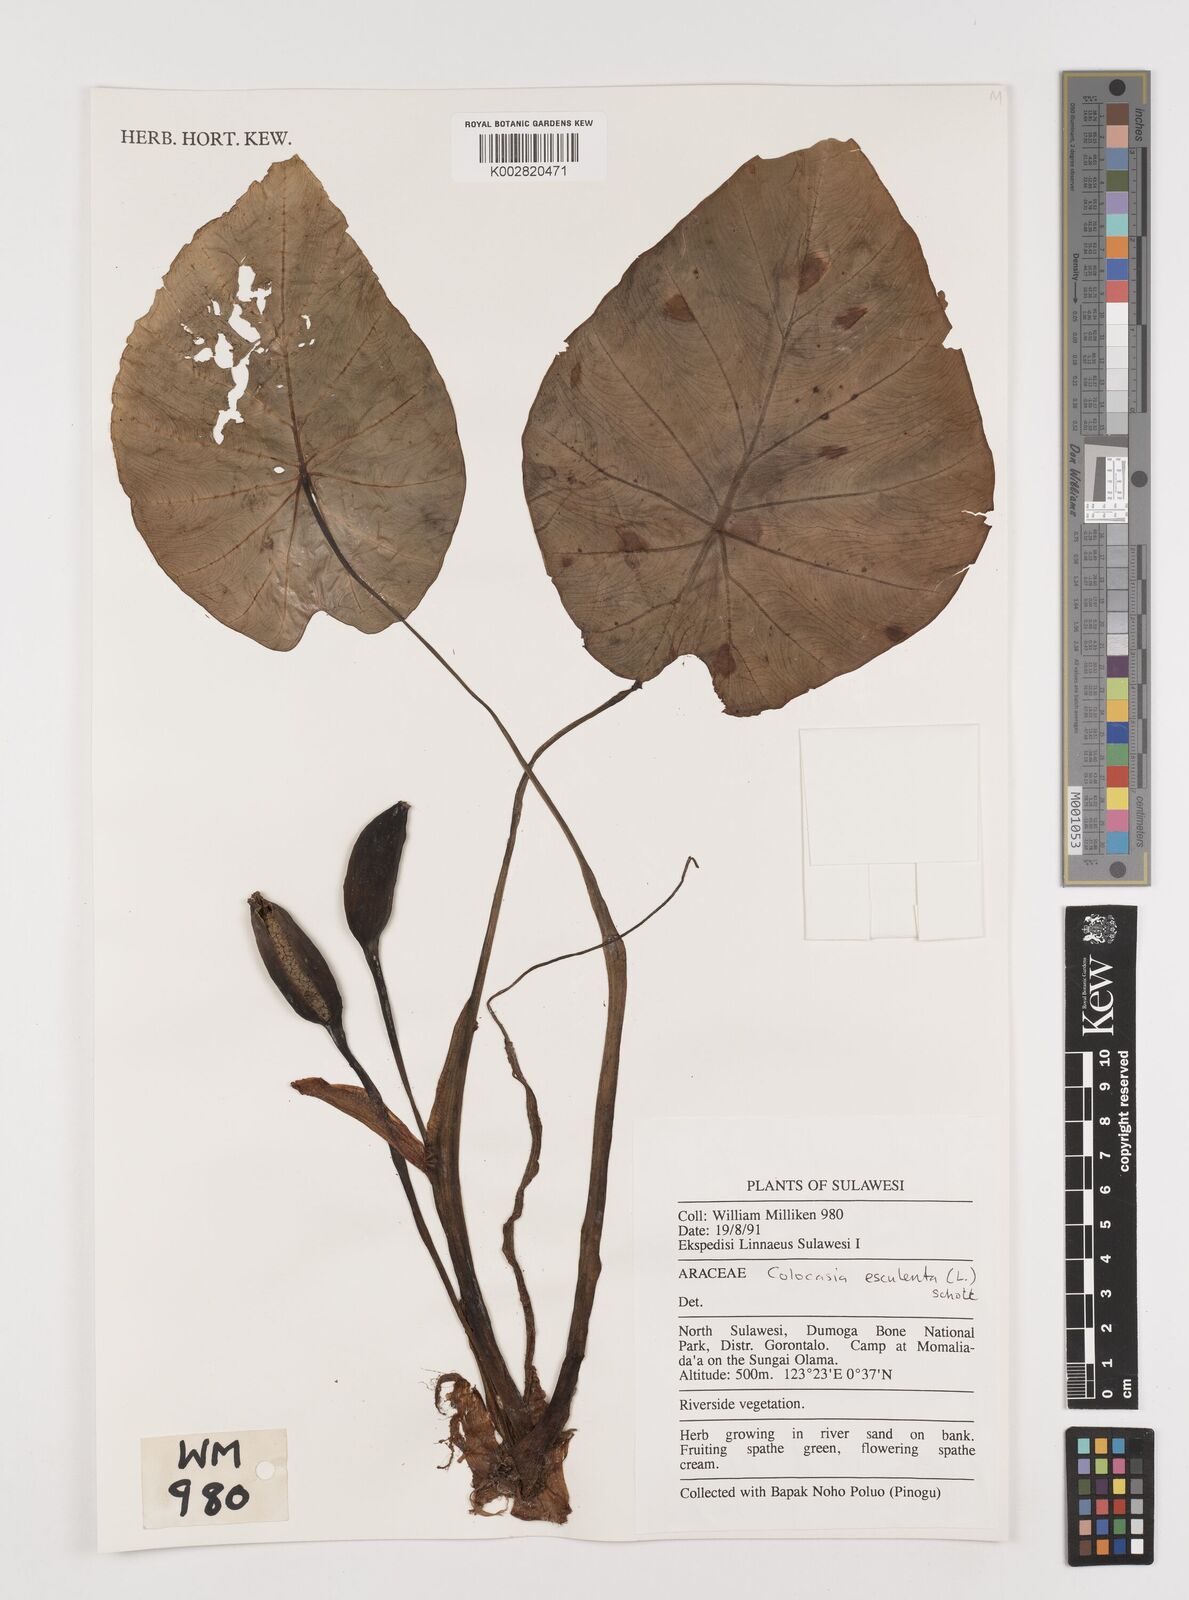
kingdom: Plantae
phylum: Tracheophyta
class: Liliopsida
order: Alismatales
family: Araceae
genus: Colocasia
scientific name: Colocasia esculenta
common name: Taro
